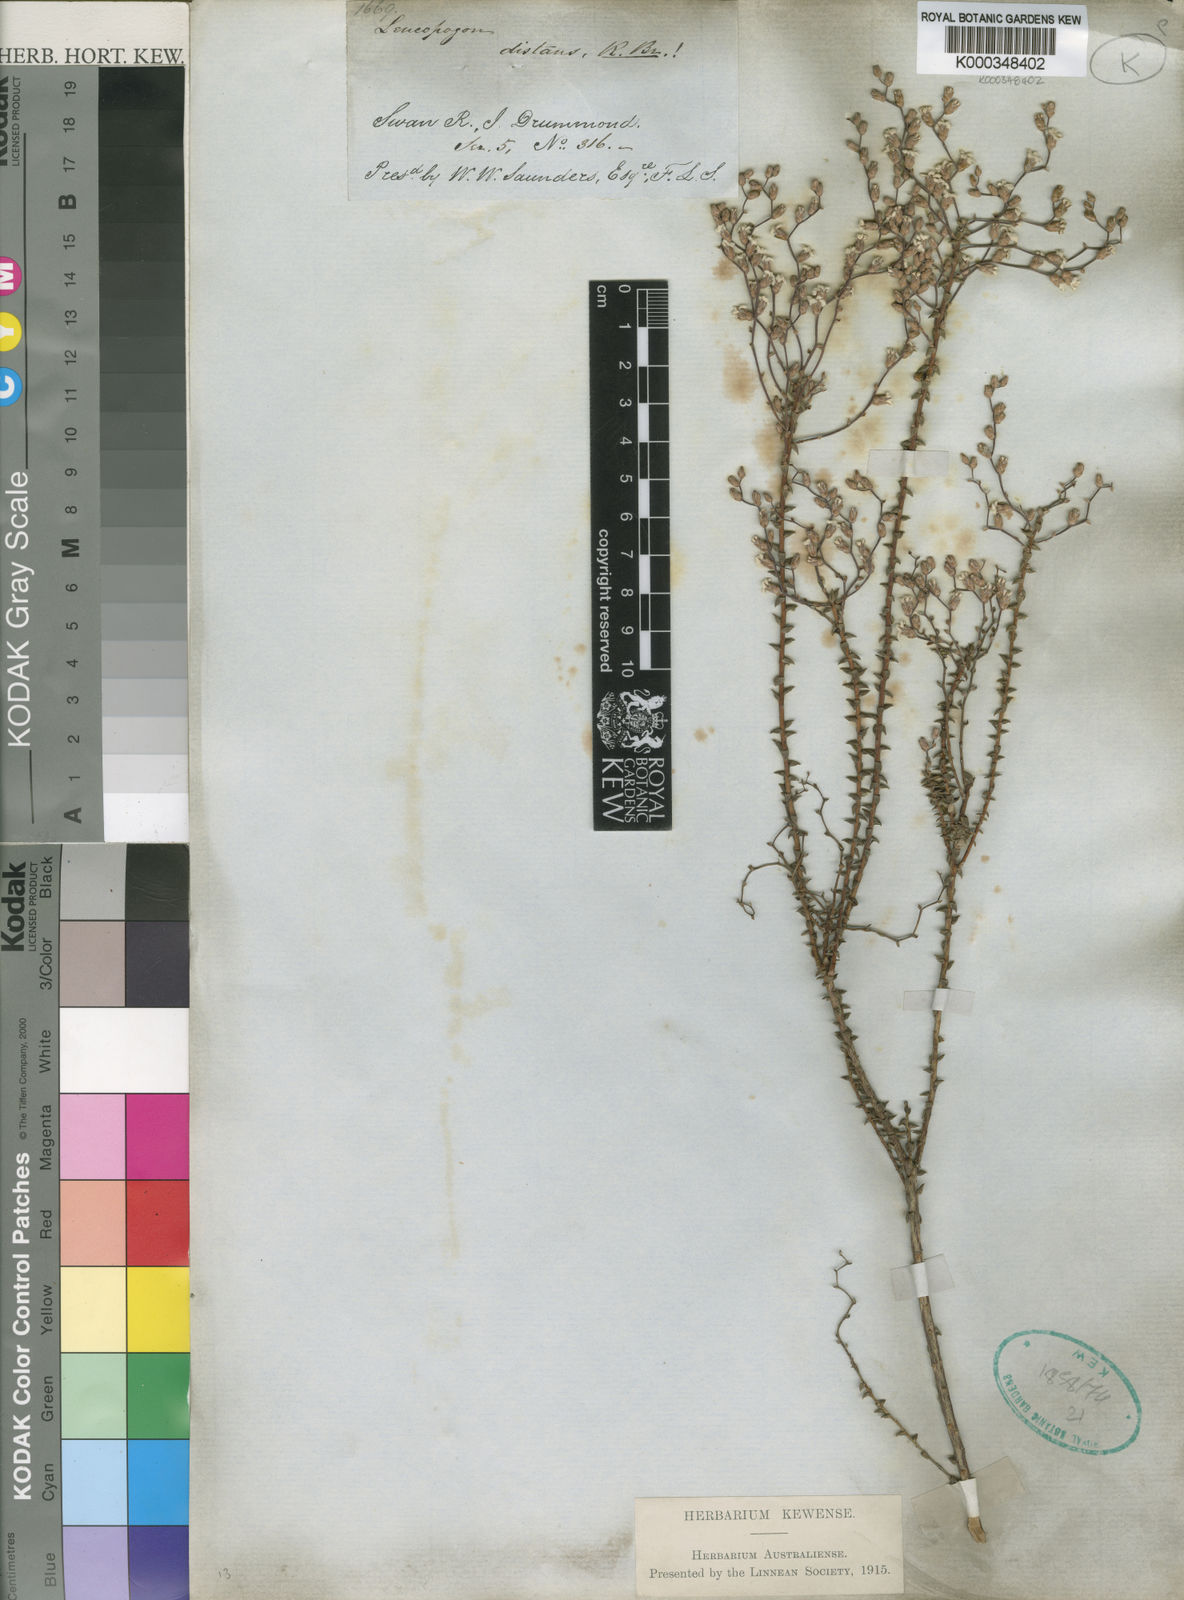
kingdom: Plantae
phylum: Tracheophyta
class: Magnoliopsida
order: Ericales
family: Ericaceae
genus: Leucopogon
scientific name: Leucopogon distans
